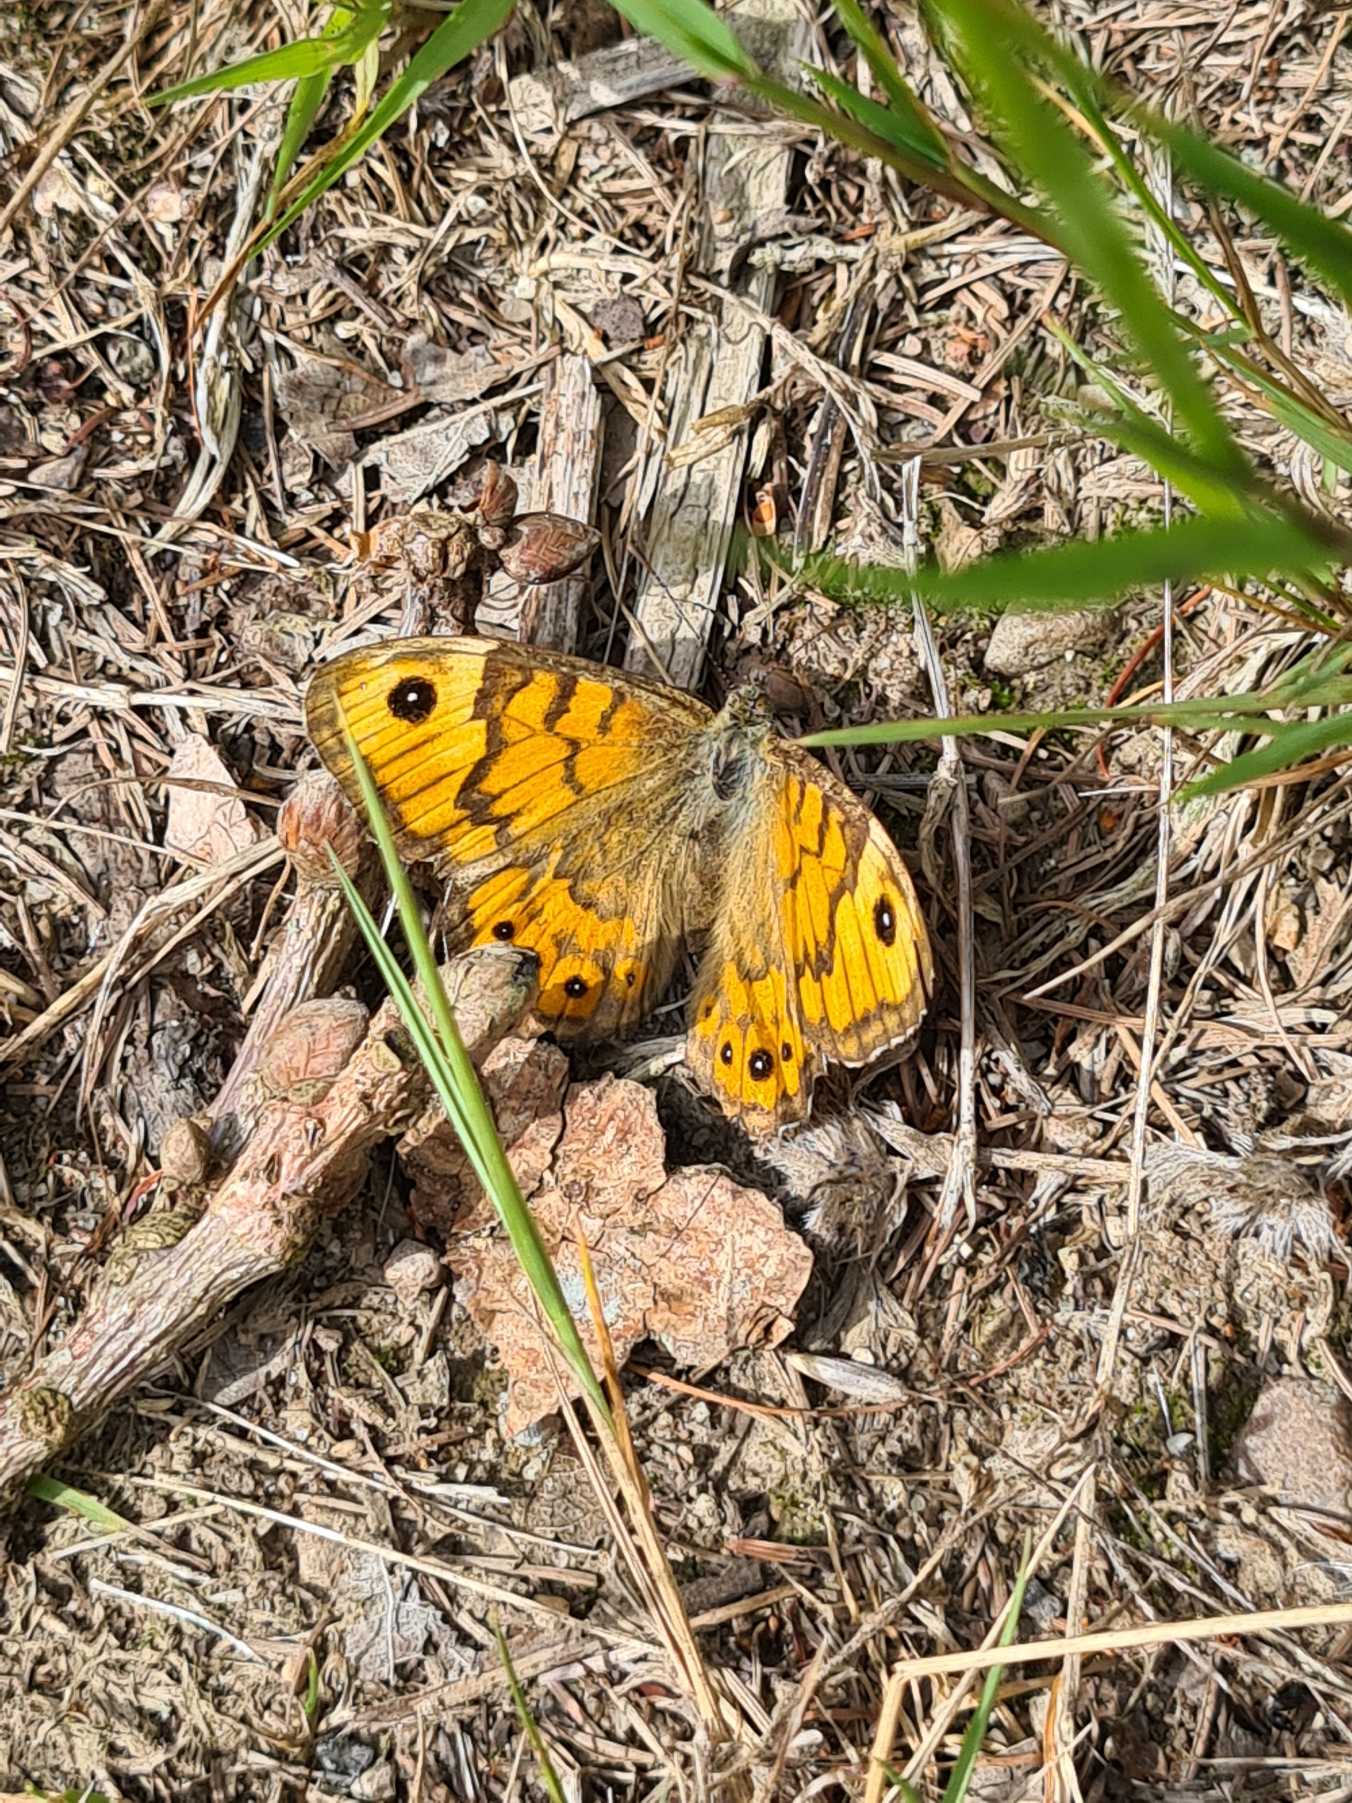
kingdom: Animalia
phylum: Arthropoda
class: Insecta
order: Lepidoptera
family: Nymphalidae
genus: Pararge
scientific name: Pararge Lasiommata megera
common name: Vejrandøje
